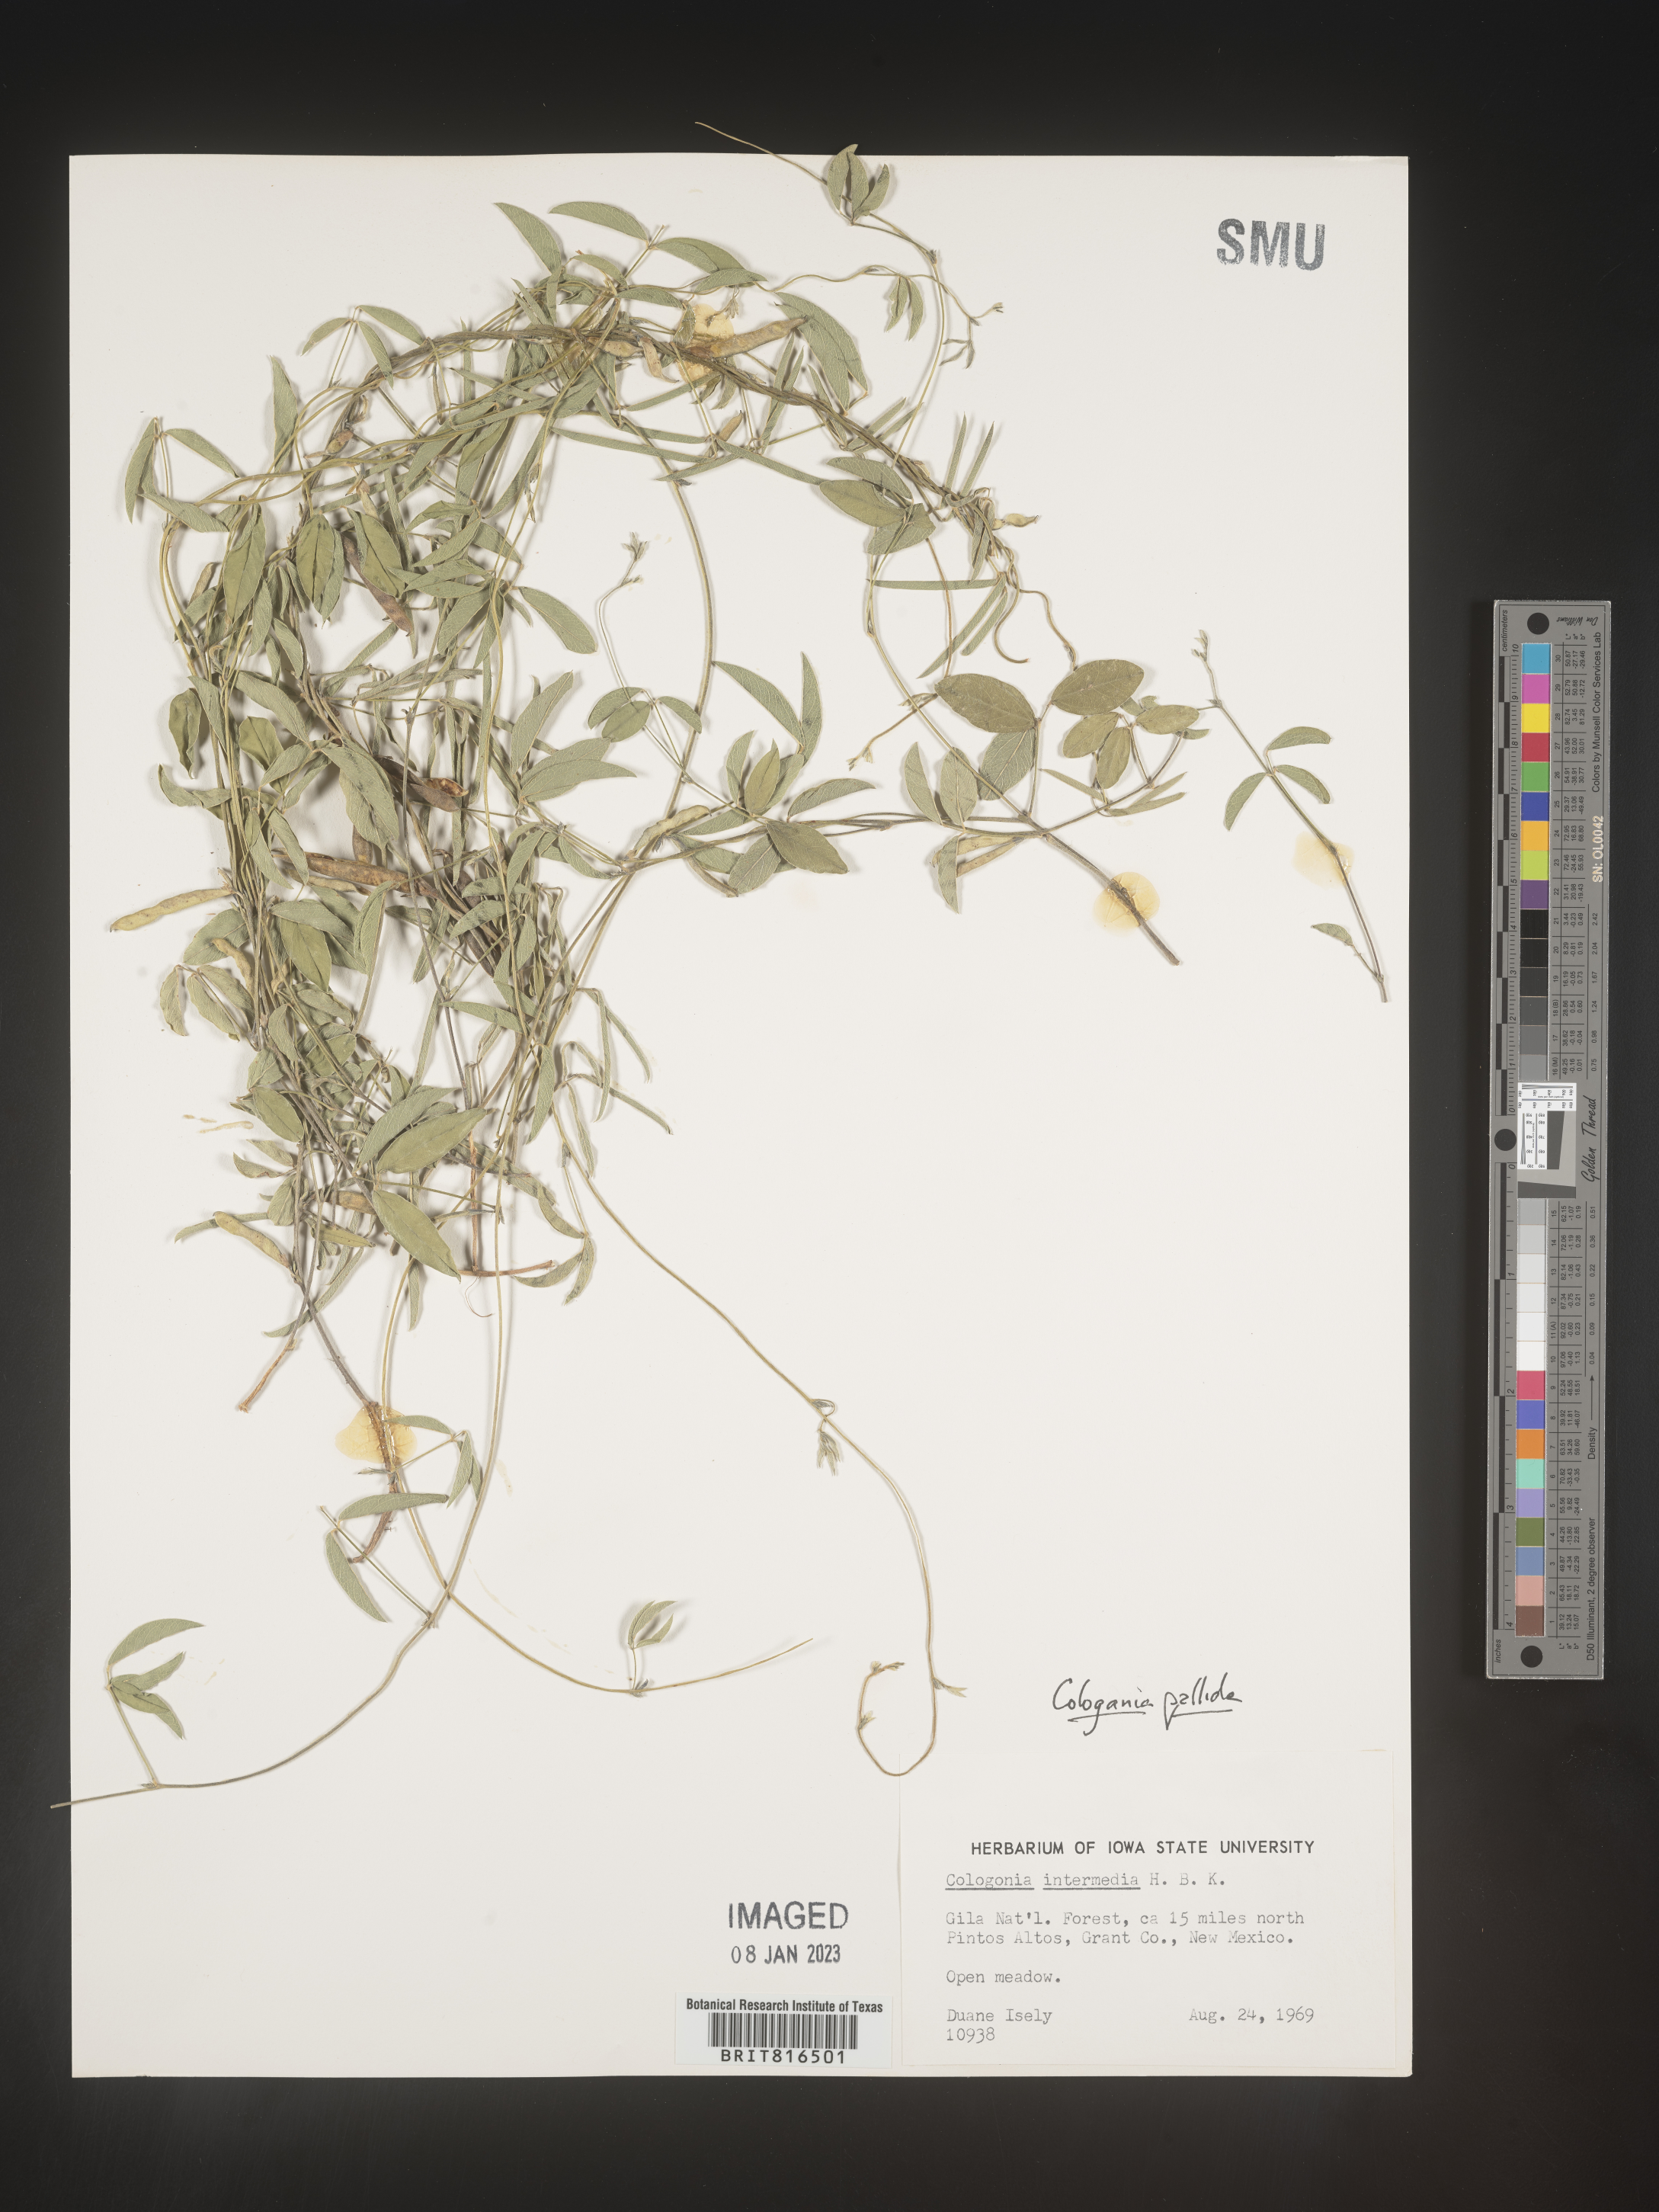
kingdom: Plantae
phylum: Tracheophyta
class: Magnoliopsida
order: Fabales
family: Fabaceae
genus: Cologania
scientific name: Cologania
